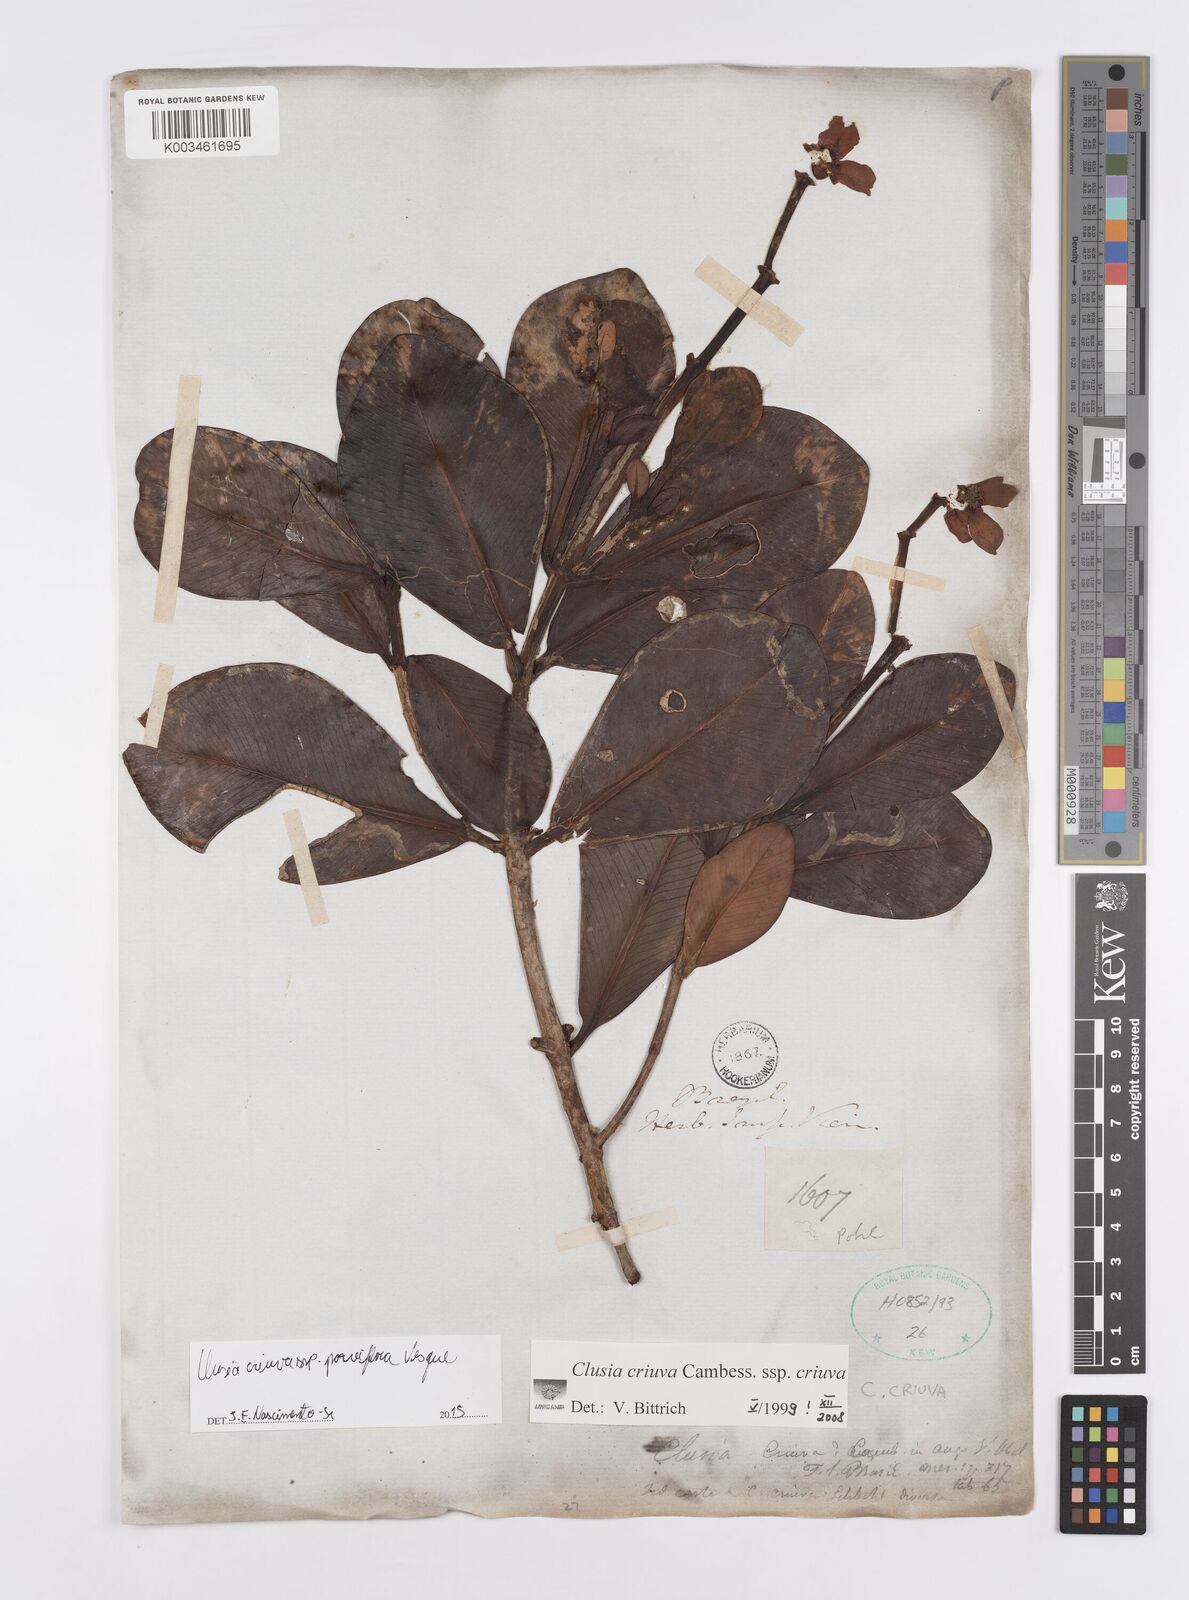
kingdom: Plantae
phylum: Tracheophyta
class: Magnoliopsida
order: Malpighiales
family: Clusiaceae
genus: Clusia
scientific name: Clusia criuva
